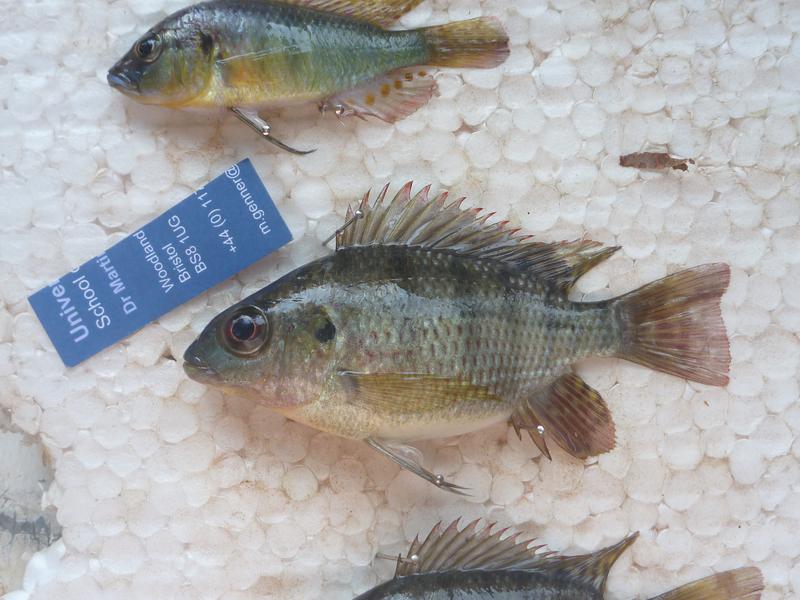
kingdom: Animalia
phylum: Chordata
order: Perciformes
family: Cichlidae
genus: Oreochromis
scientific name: Oreochromis upembae
